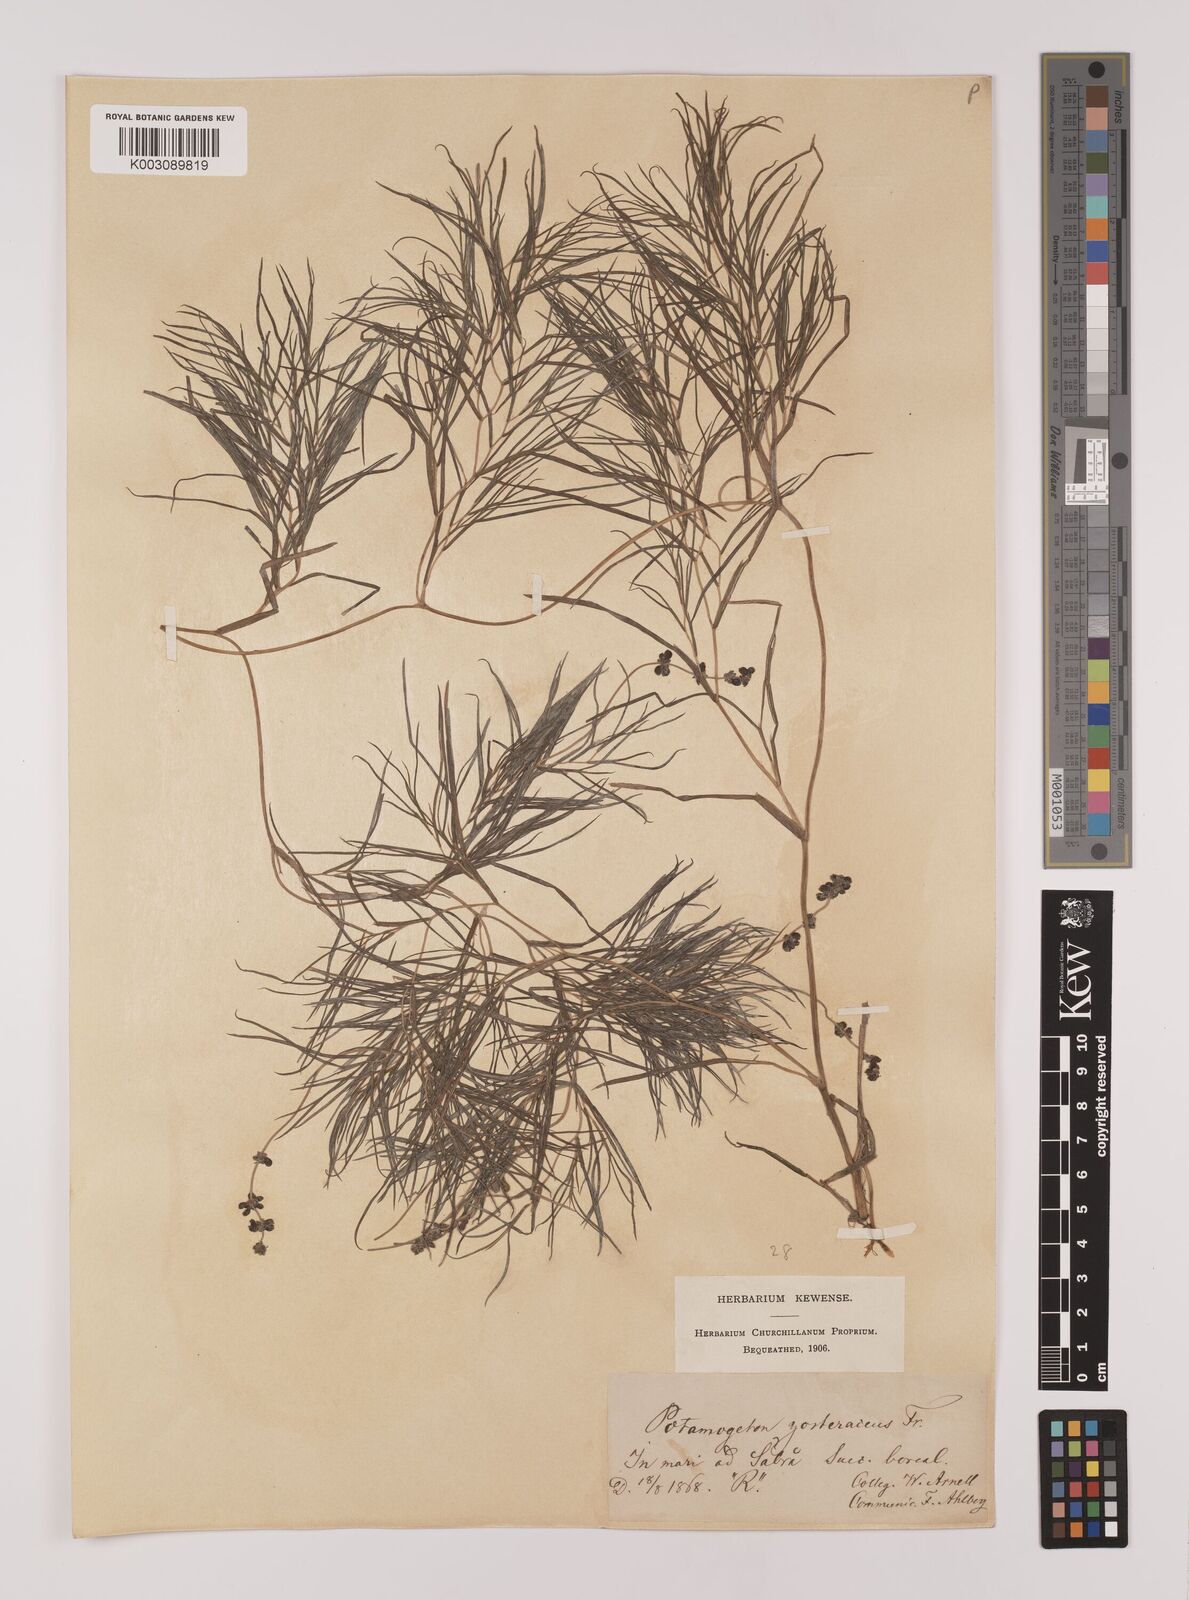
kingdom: Plantae
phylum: Tracheophyta
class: Liliopsida
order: Alismatales
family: Potamogetonaceae
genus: Stuckenia
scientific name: Stuckenia pectinata
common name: Sago pondweed
